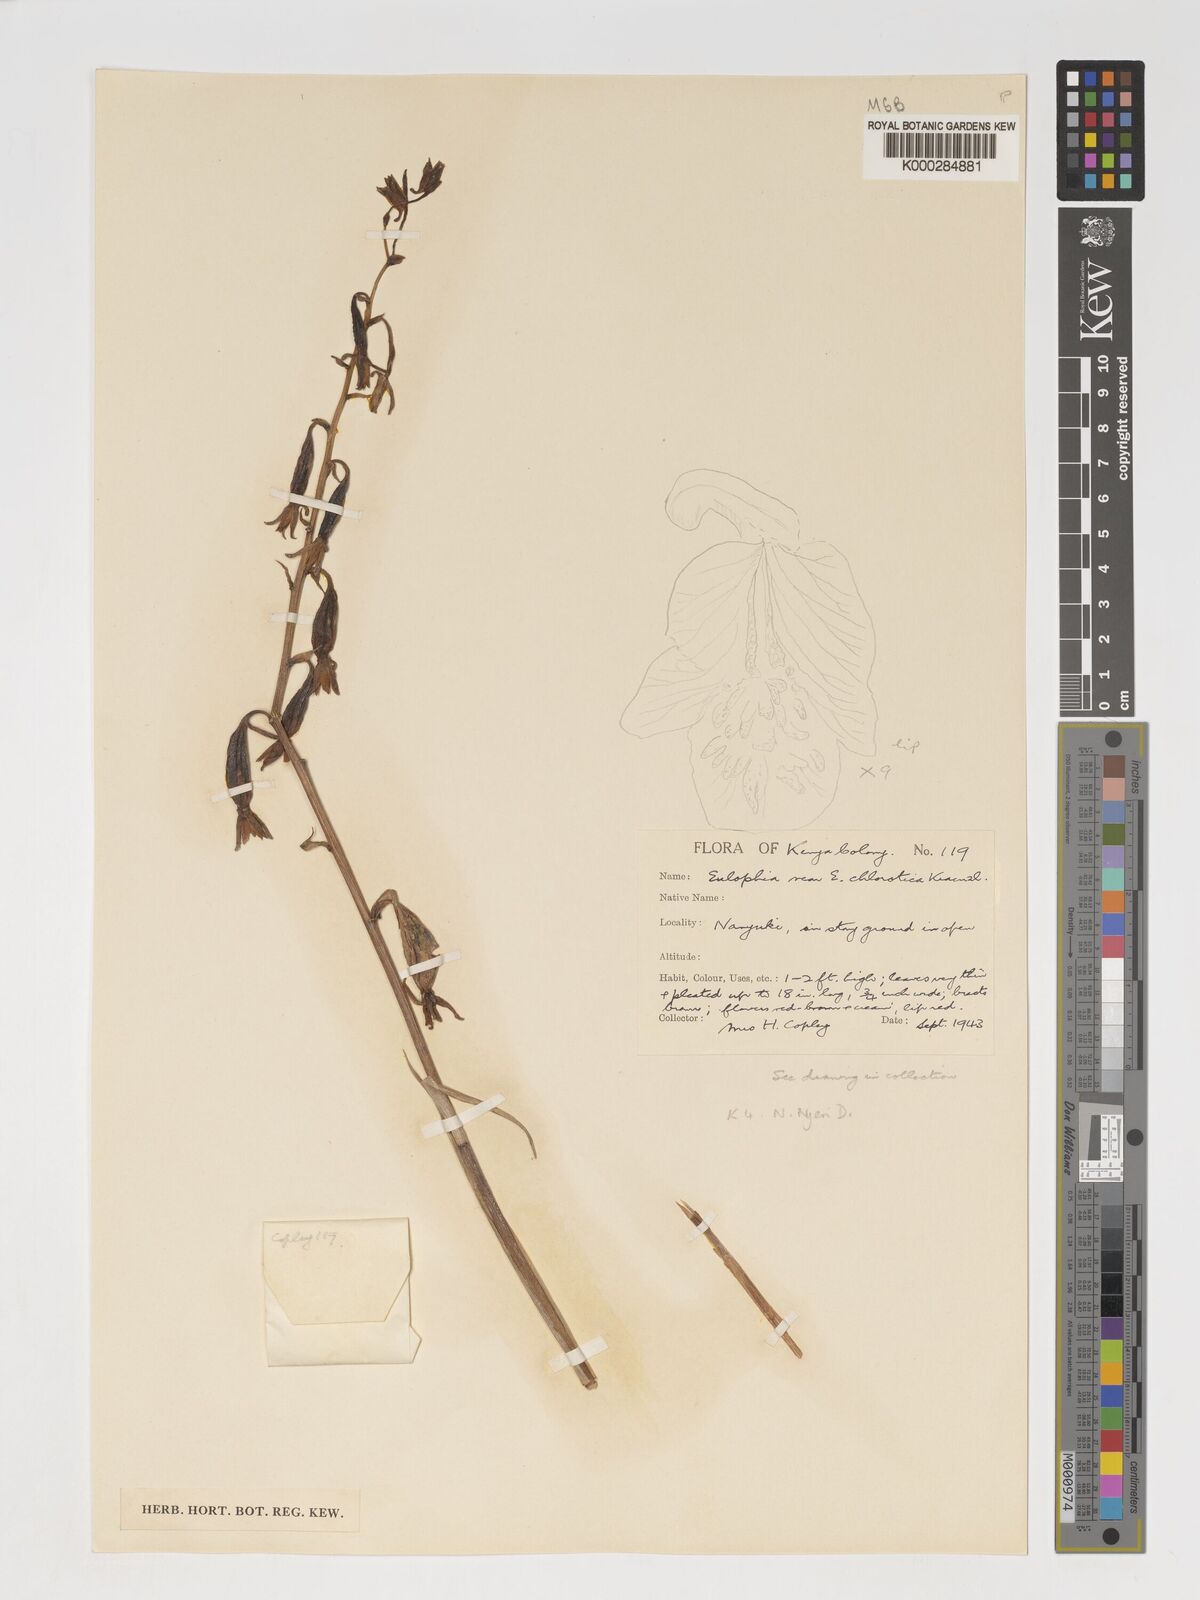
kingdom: Plantae
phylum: Tracheophyta
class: Liliopsida
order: Asparagales
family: Orchidaceae
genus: Eulophia
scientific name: Eulophia hians
